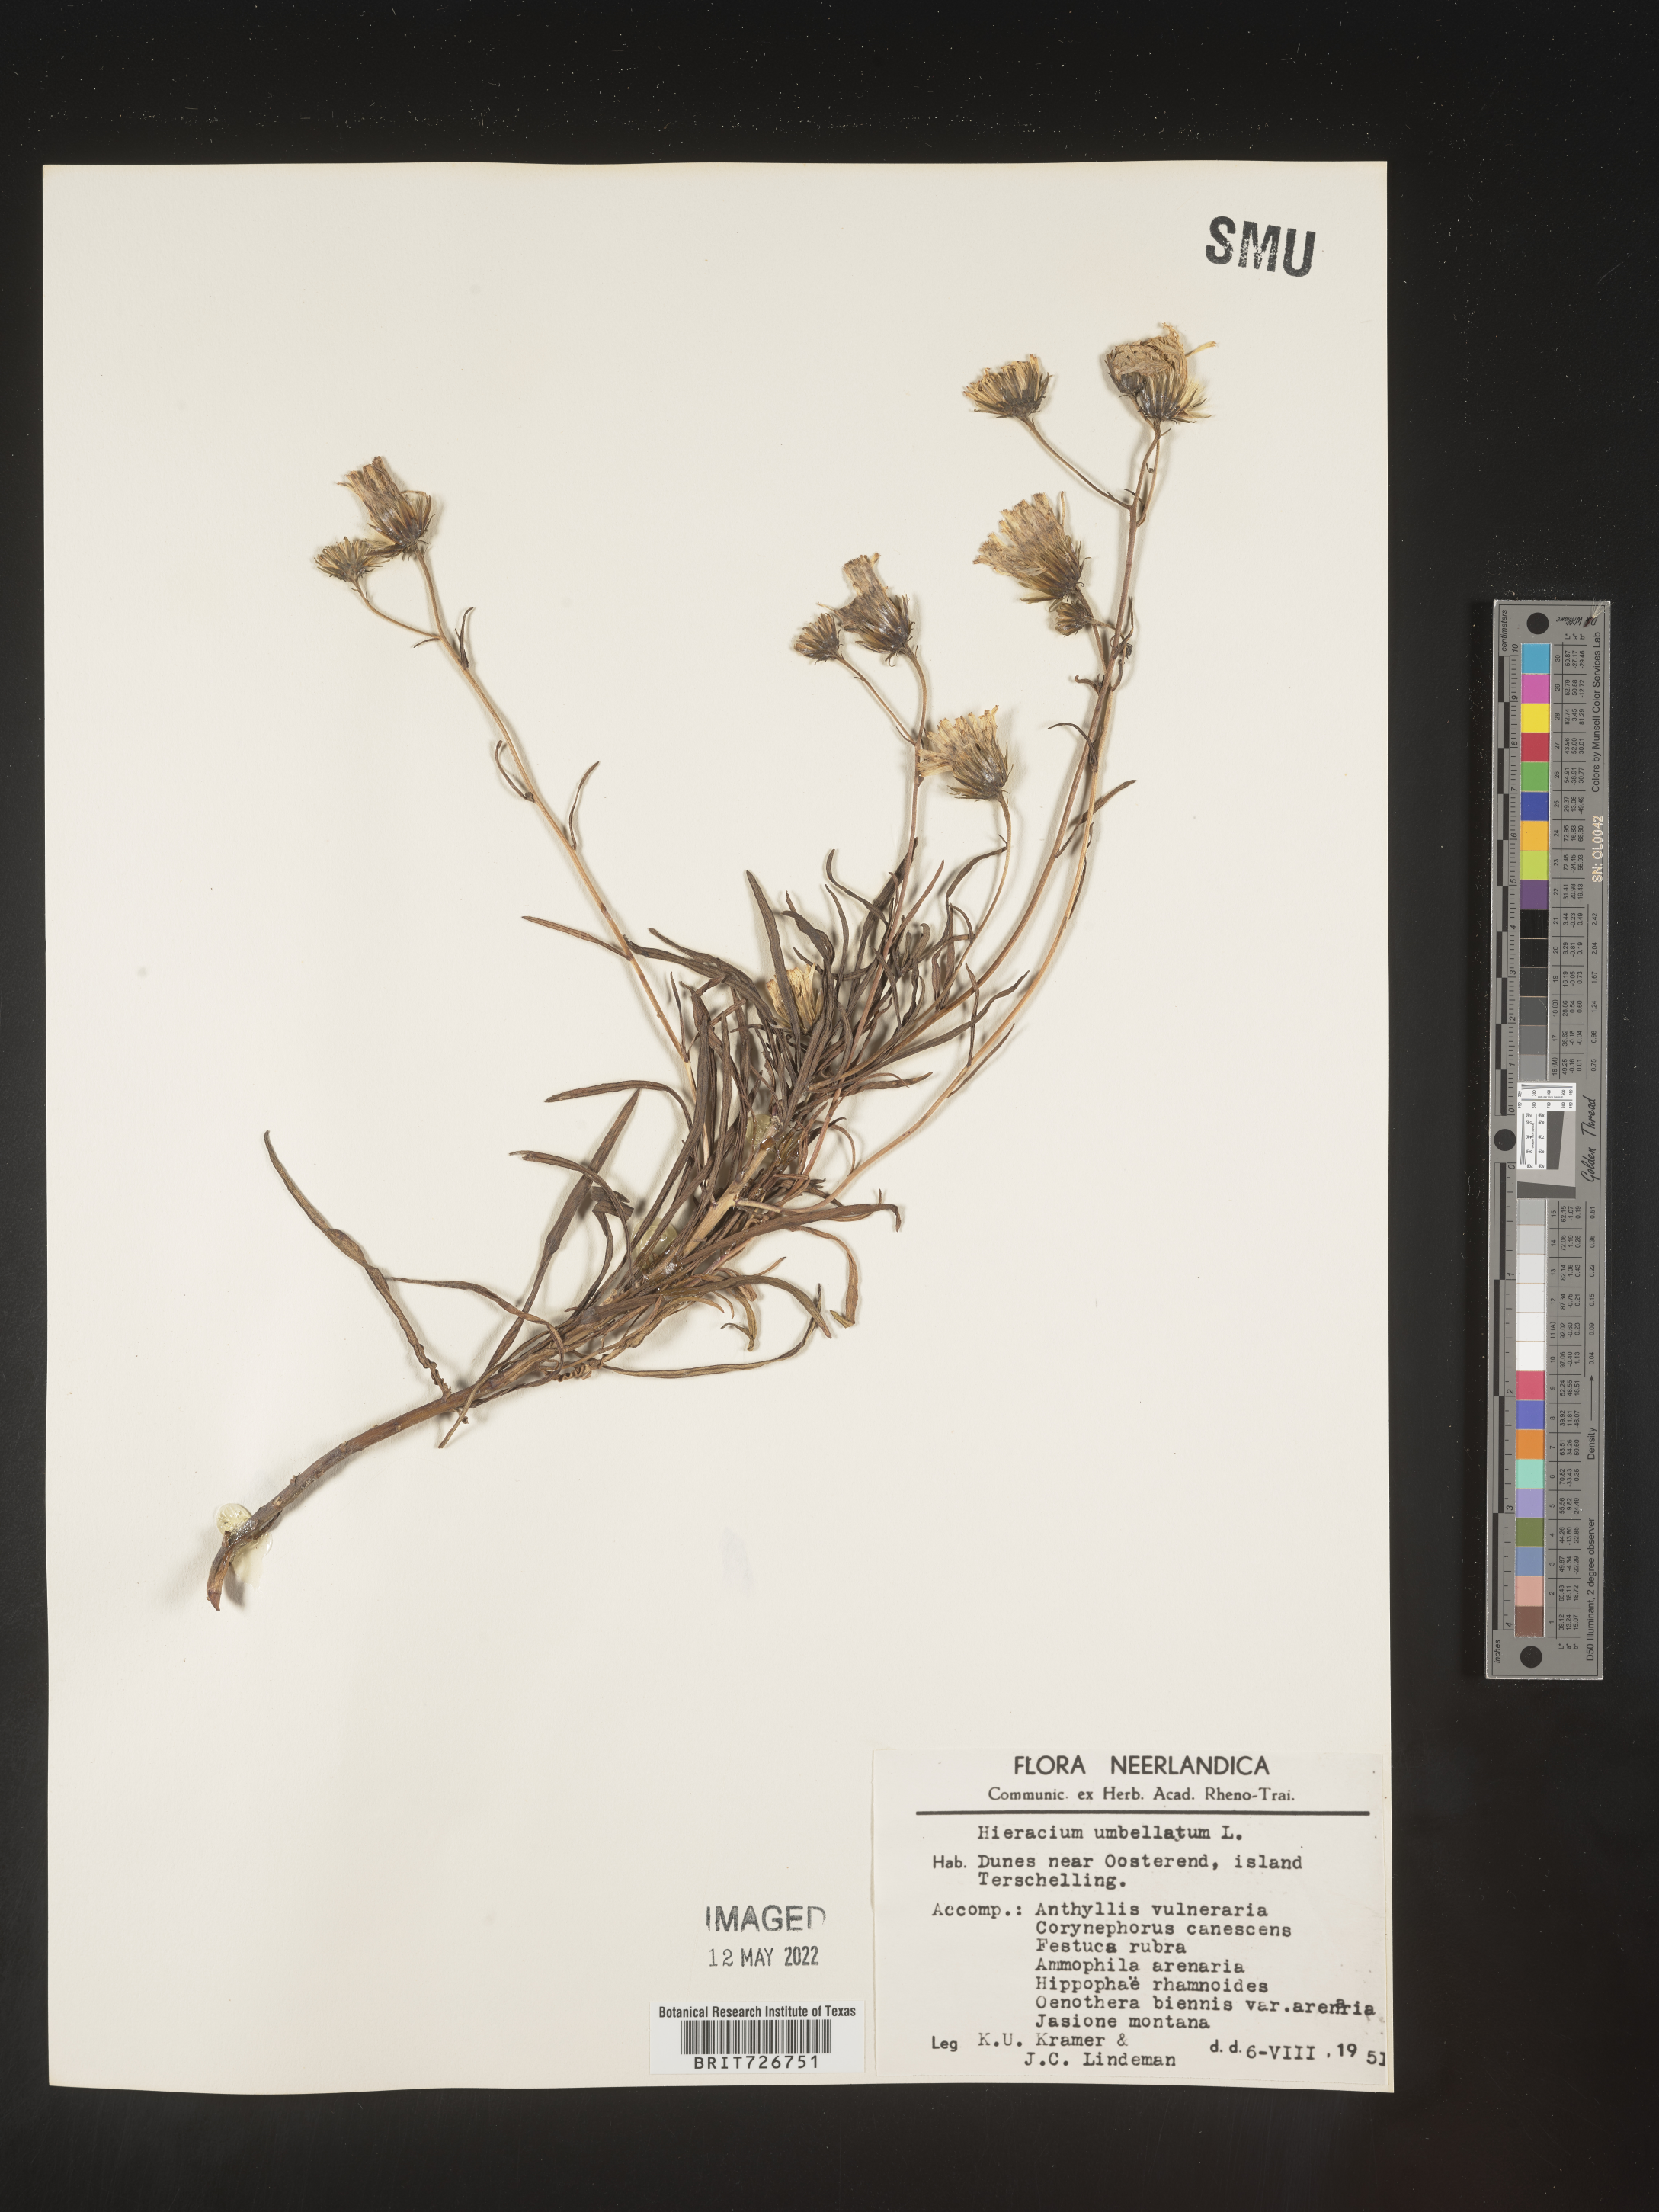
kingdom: Plantae
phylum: Tracheophyta
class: Magnoliopsida
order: Asterales
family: Asteraceae
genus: Hieracium
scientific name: Hieracium
